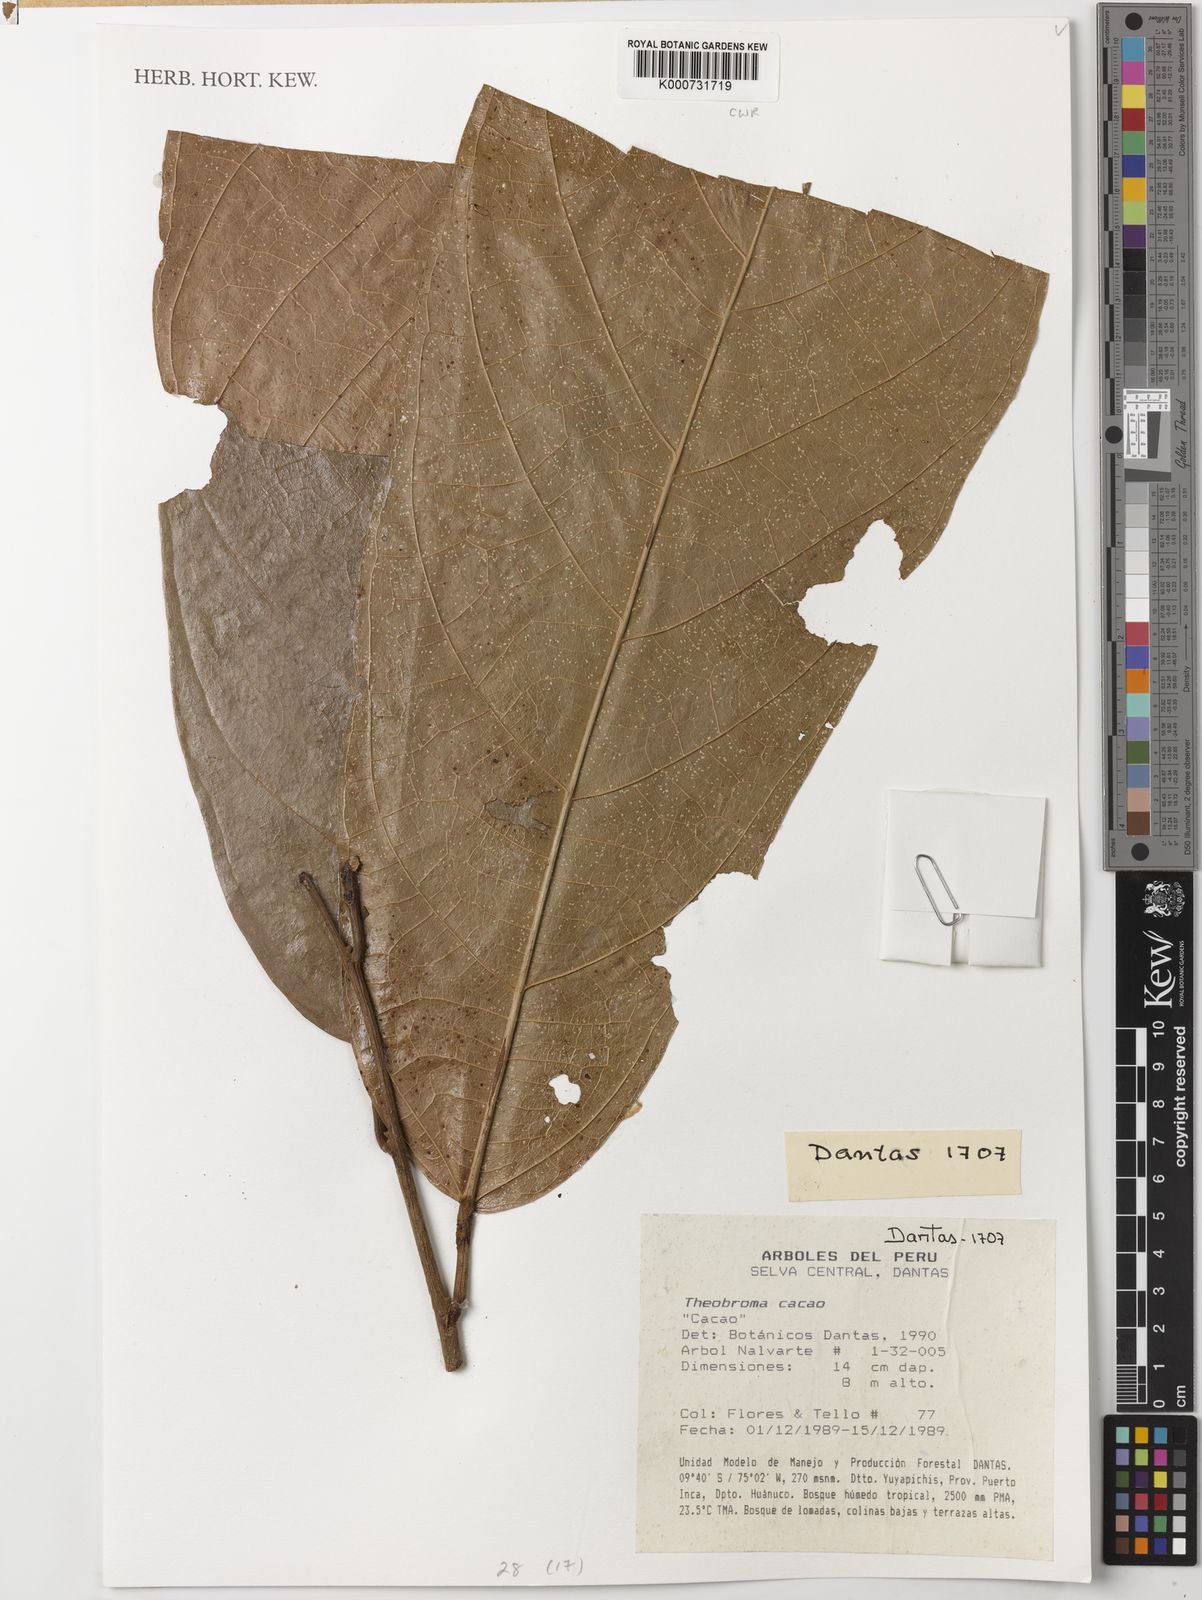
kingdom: Plantae
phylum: Tracheophyta
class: Magnoliopsida
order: Malvales
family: Malvaceae
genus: Theobroma
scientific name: Theobroma cacao
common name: Cocoa
